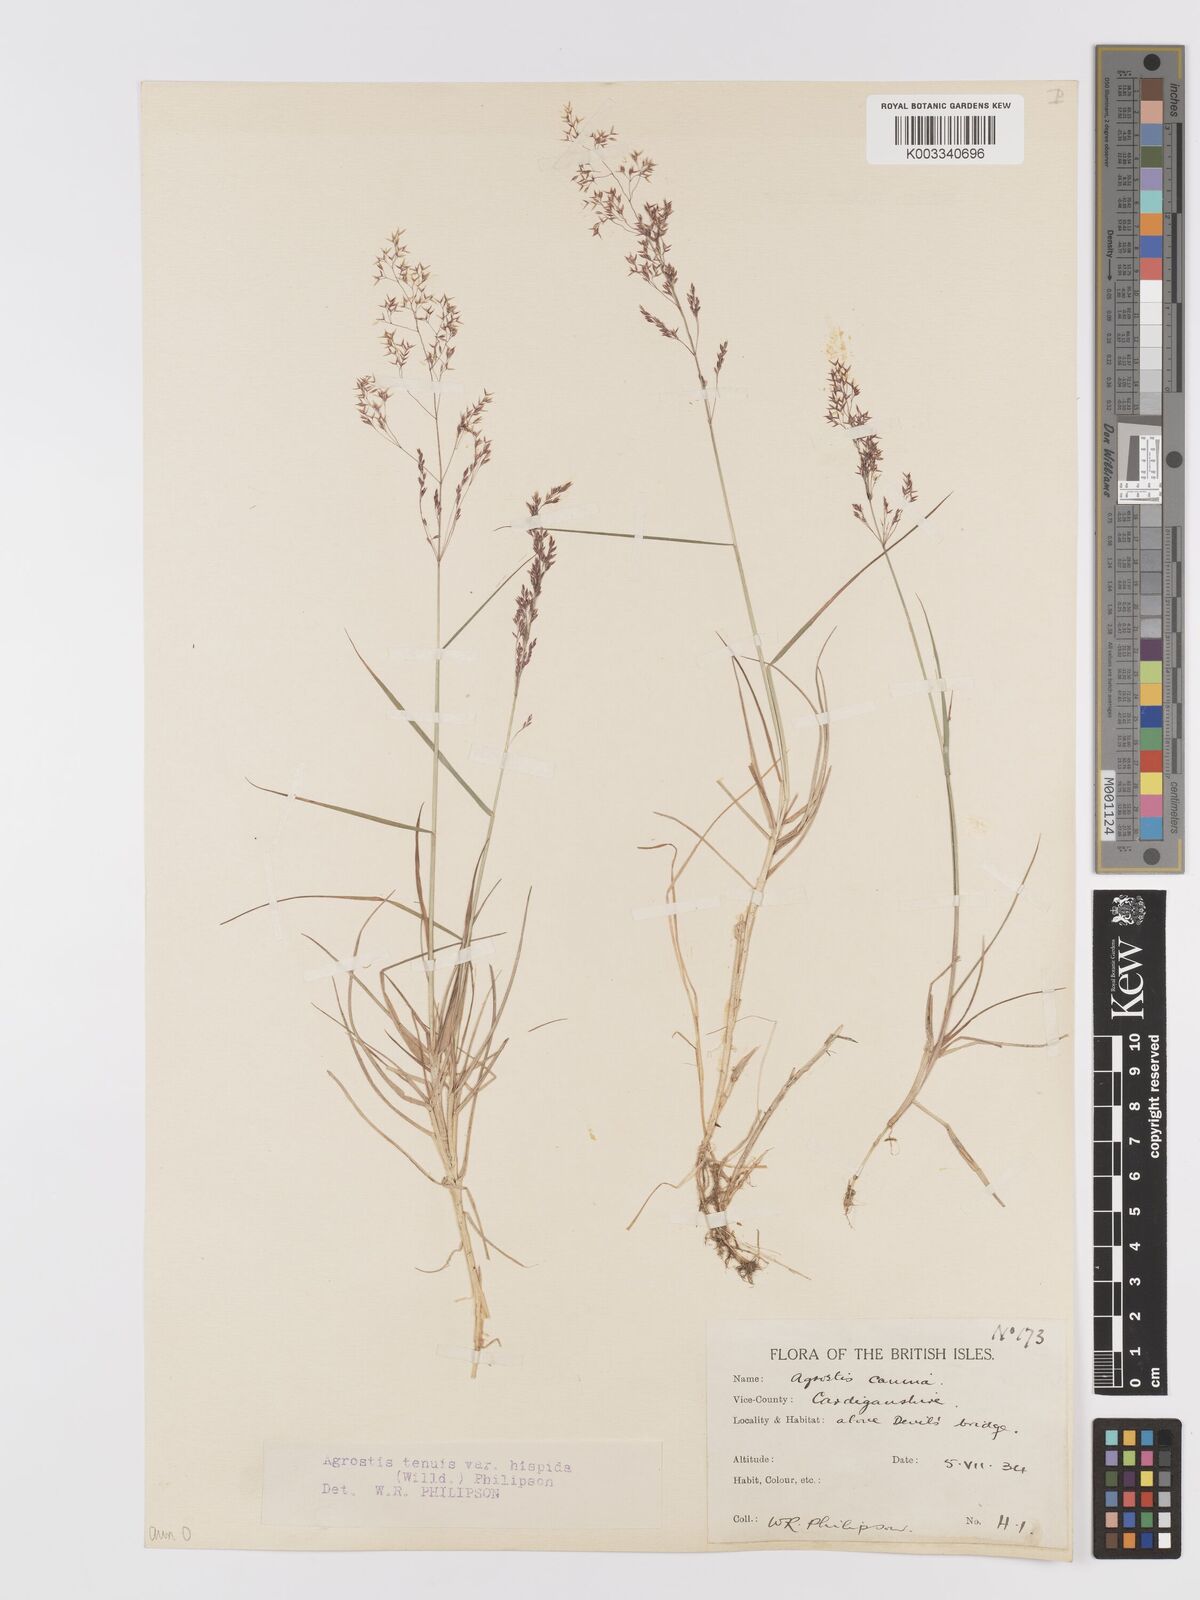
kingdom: Plantae
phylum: Tracheophyta
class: Liliopsida
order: Poales
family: Poaceae
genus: Agrostis
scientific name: Agrostis capillaris
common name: Colonial bentgrass
